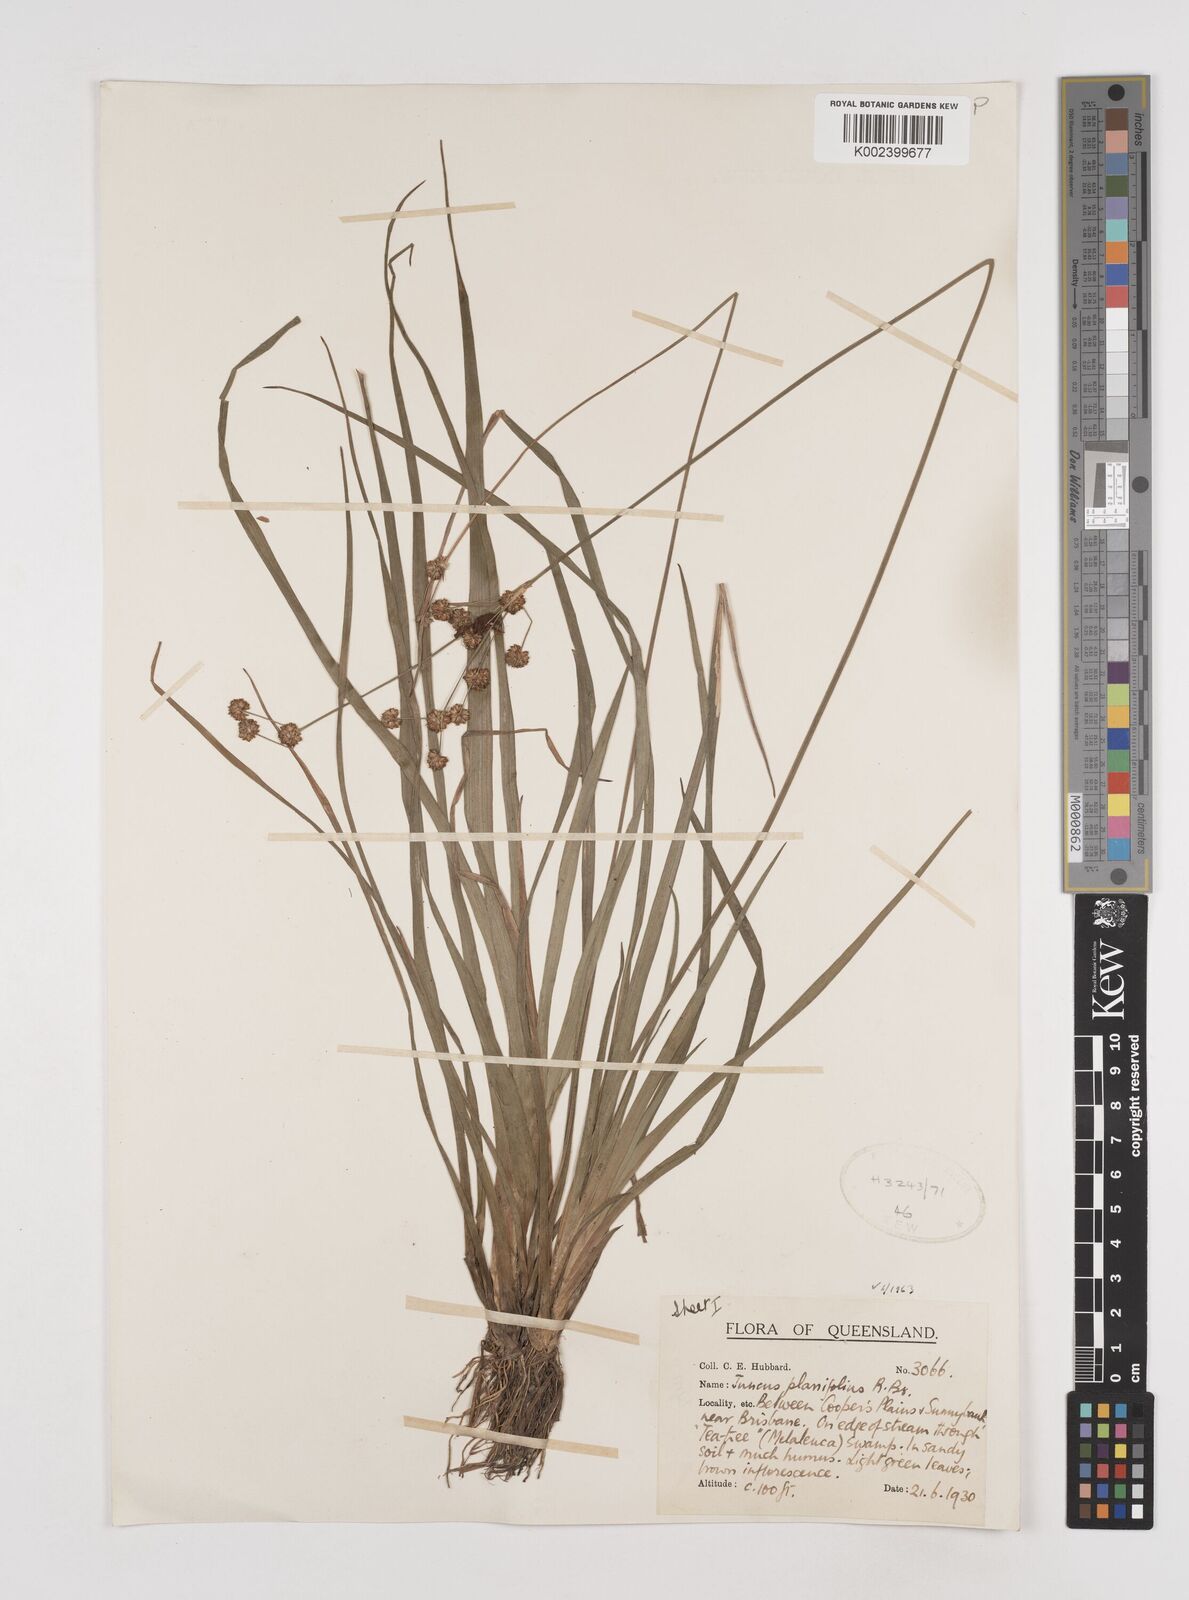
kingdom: Plantae
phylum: Tracheophyta
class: Liliopsida
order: Poales
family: Juncaceae
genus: Juncus
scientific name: Juncus planifolius
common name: Broadleaf rush
